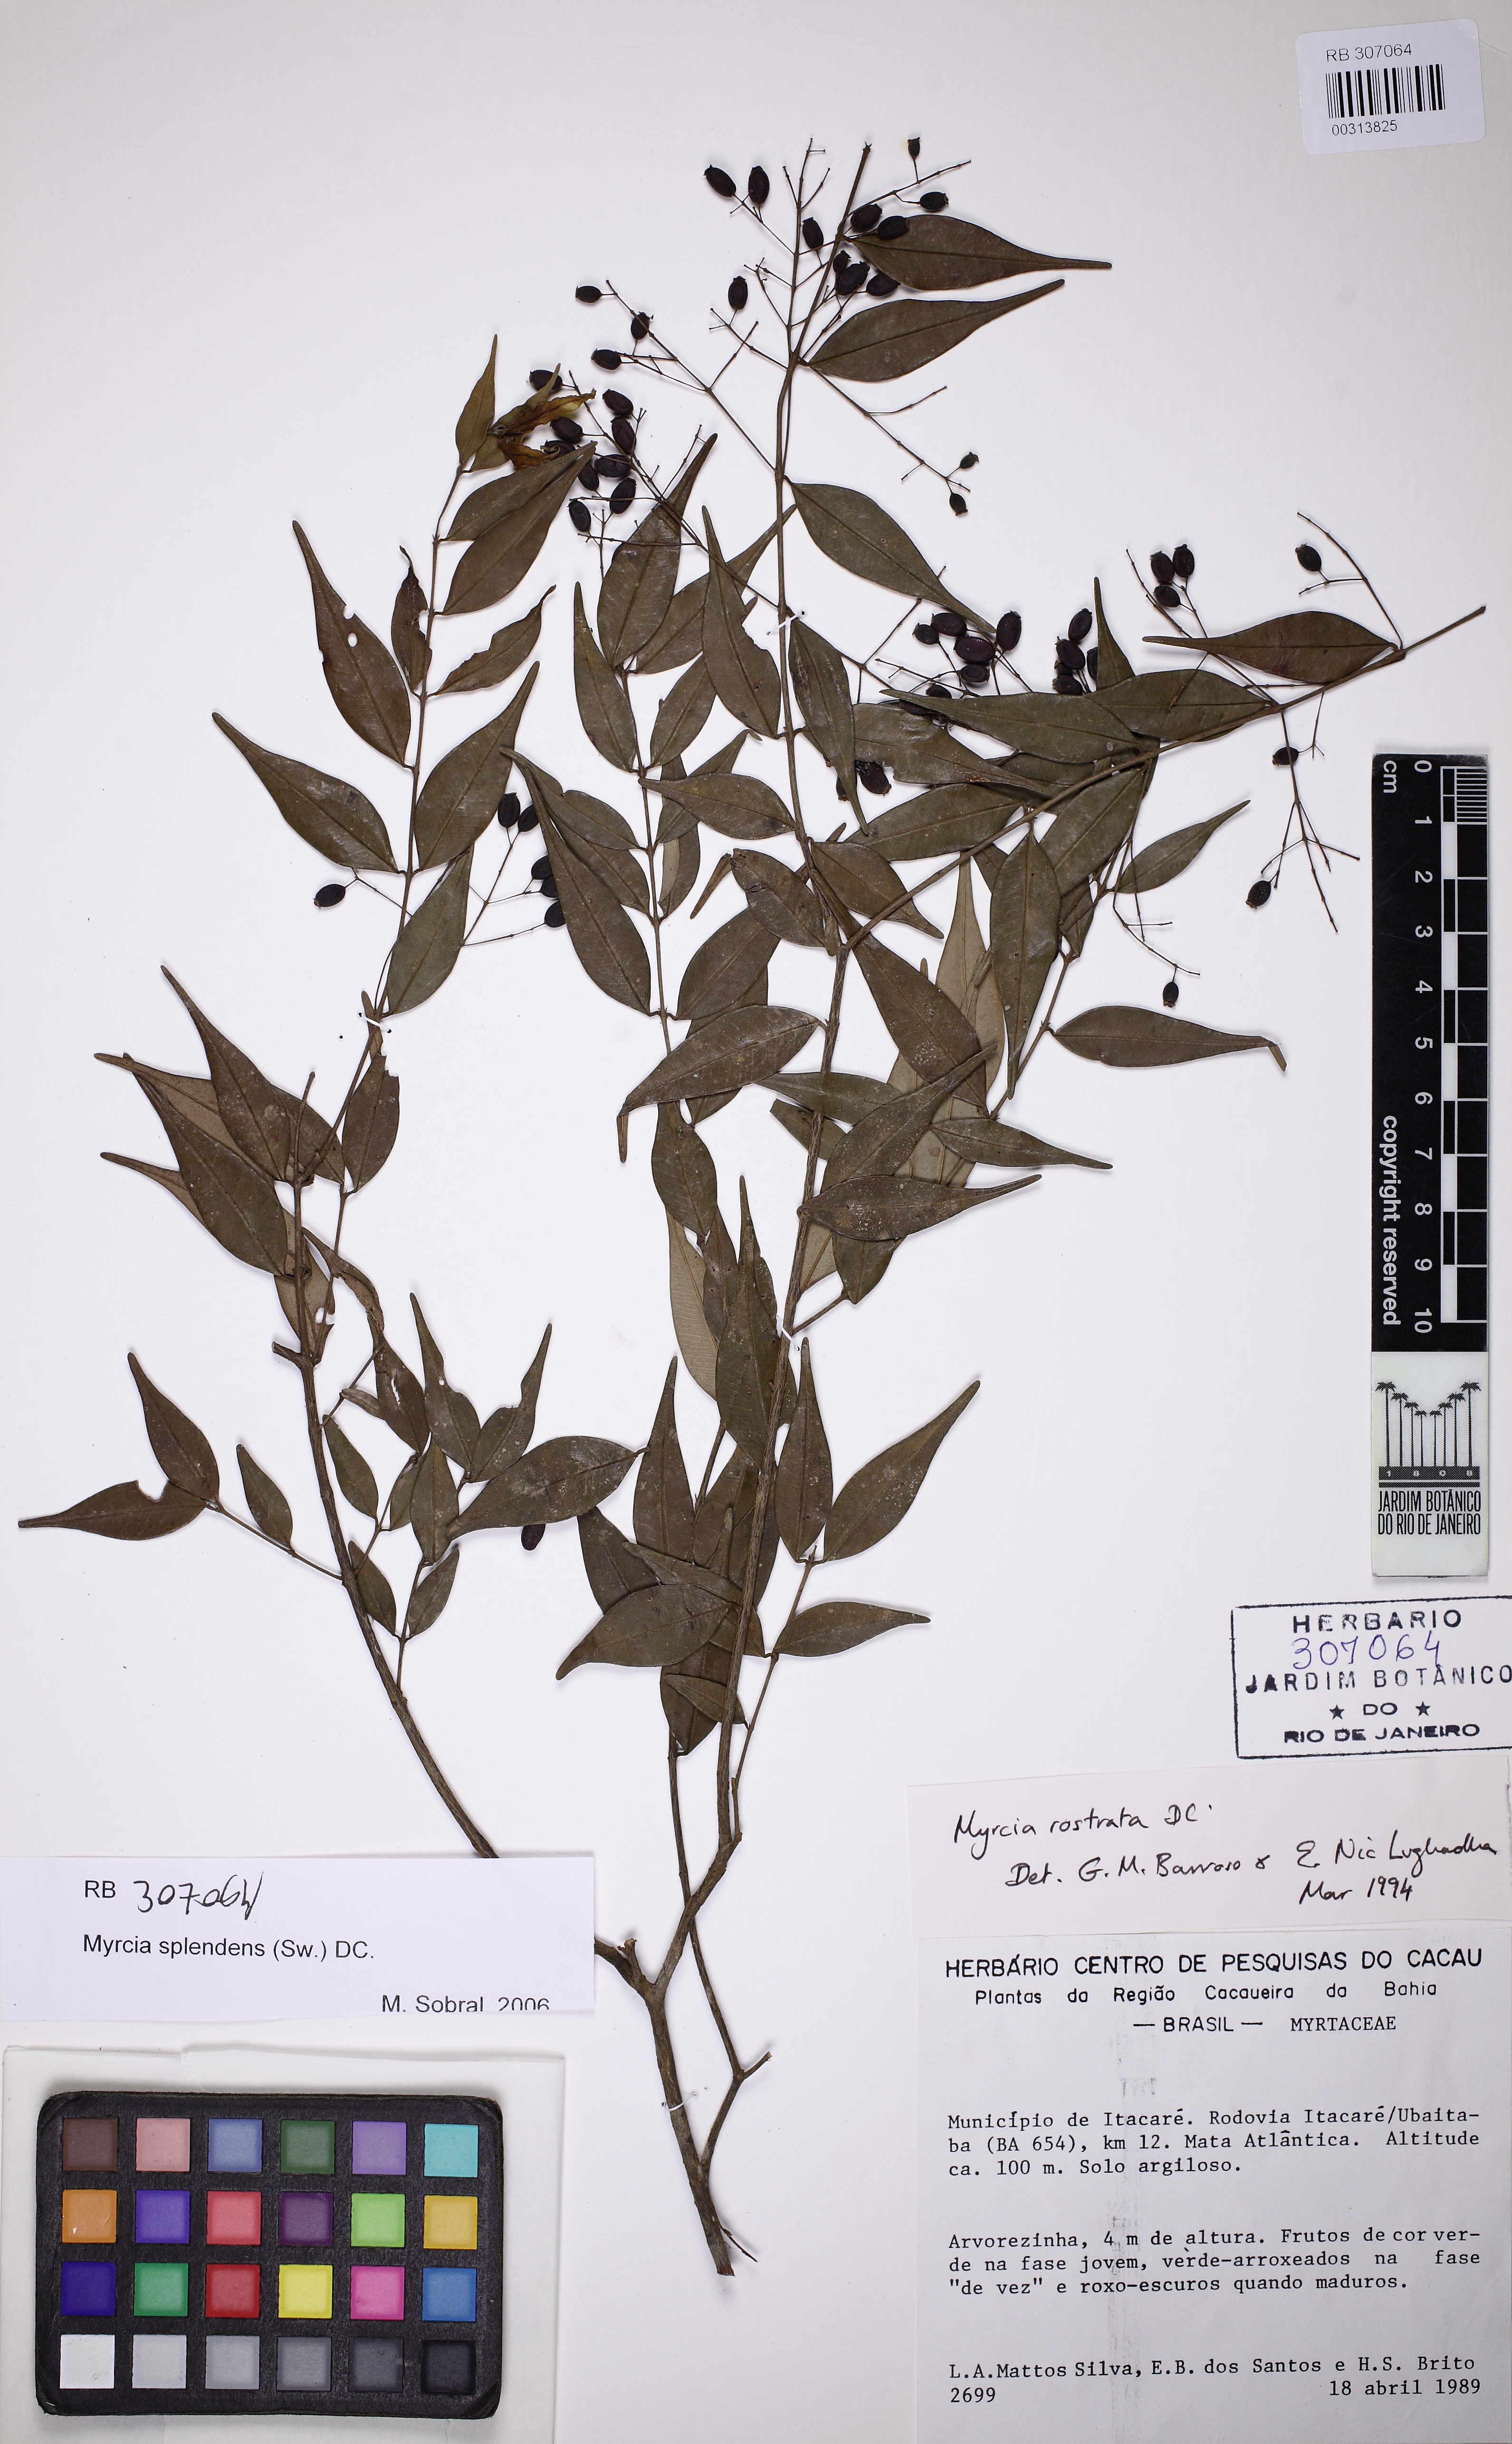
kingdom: Plantae
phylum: Tracheophyta
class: Magnoliopsida
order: Myrtales
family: Myrtaceae
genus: Myrcia
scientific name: Myrcia splendens
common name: Surinam cherry
